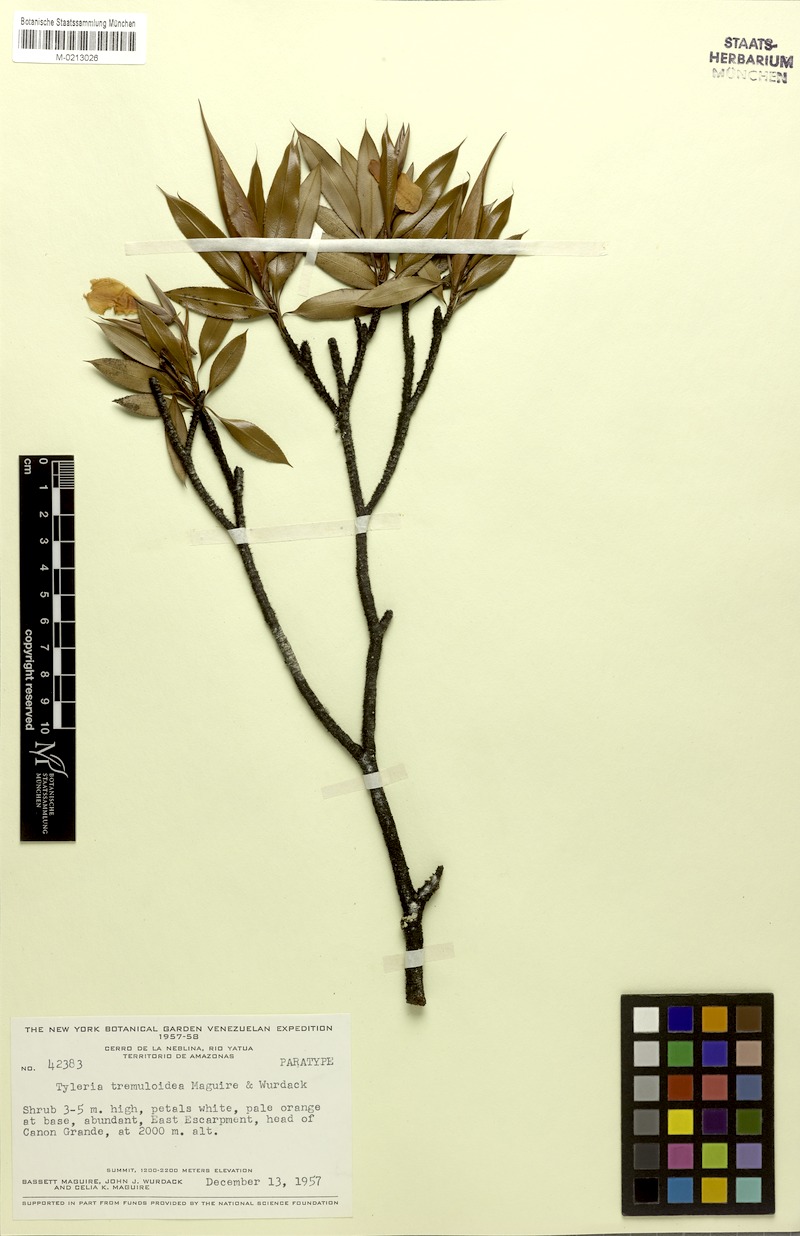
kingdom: Plantae
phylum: Tracheophyta
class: Magnoliopsida
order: Malpighiales
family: Ochnaceae
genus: Tyleria
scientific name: Tyleria tremuloidea
